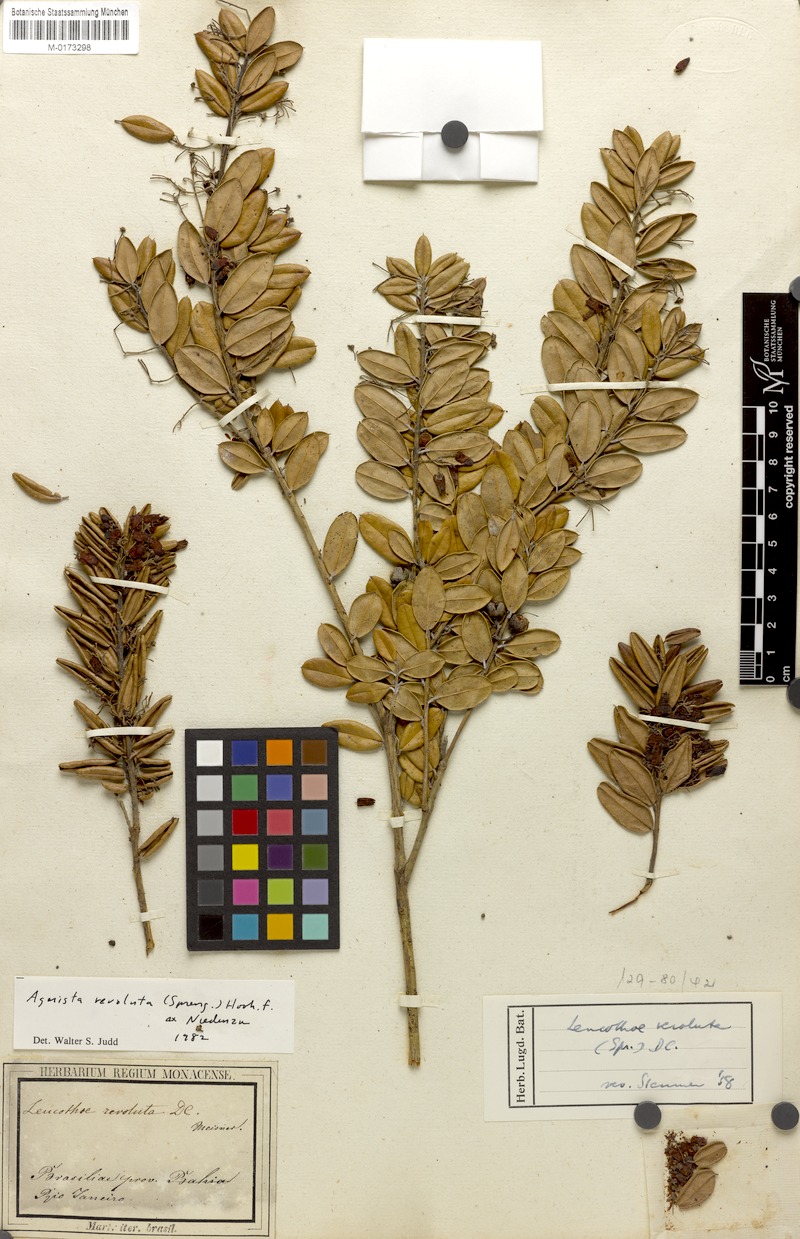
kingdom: Plantae
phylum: Tracheophyta
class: Magnoliopsida
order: Ericales
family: Ericaceae
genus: Agarista
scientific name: Agarista revoluta
